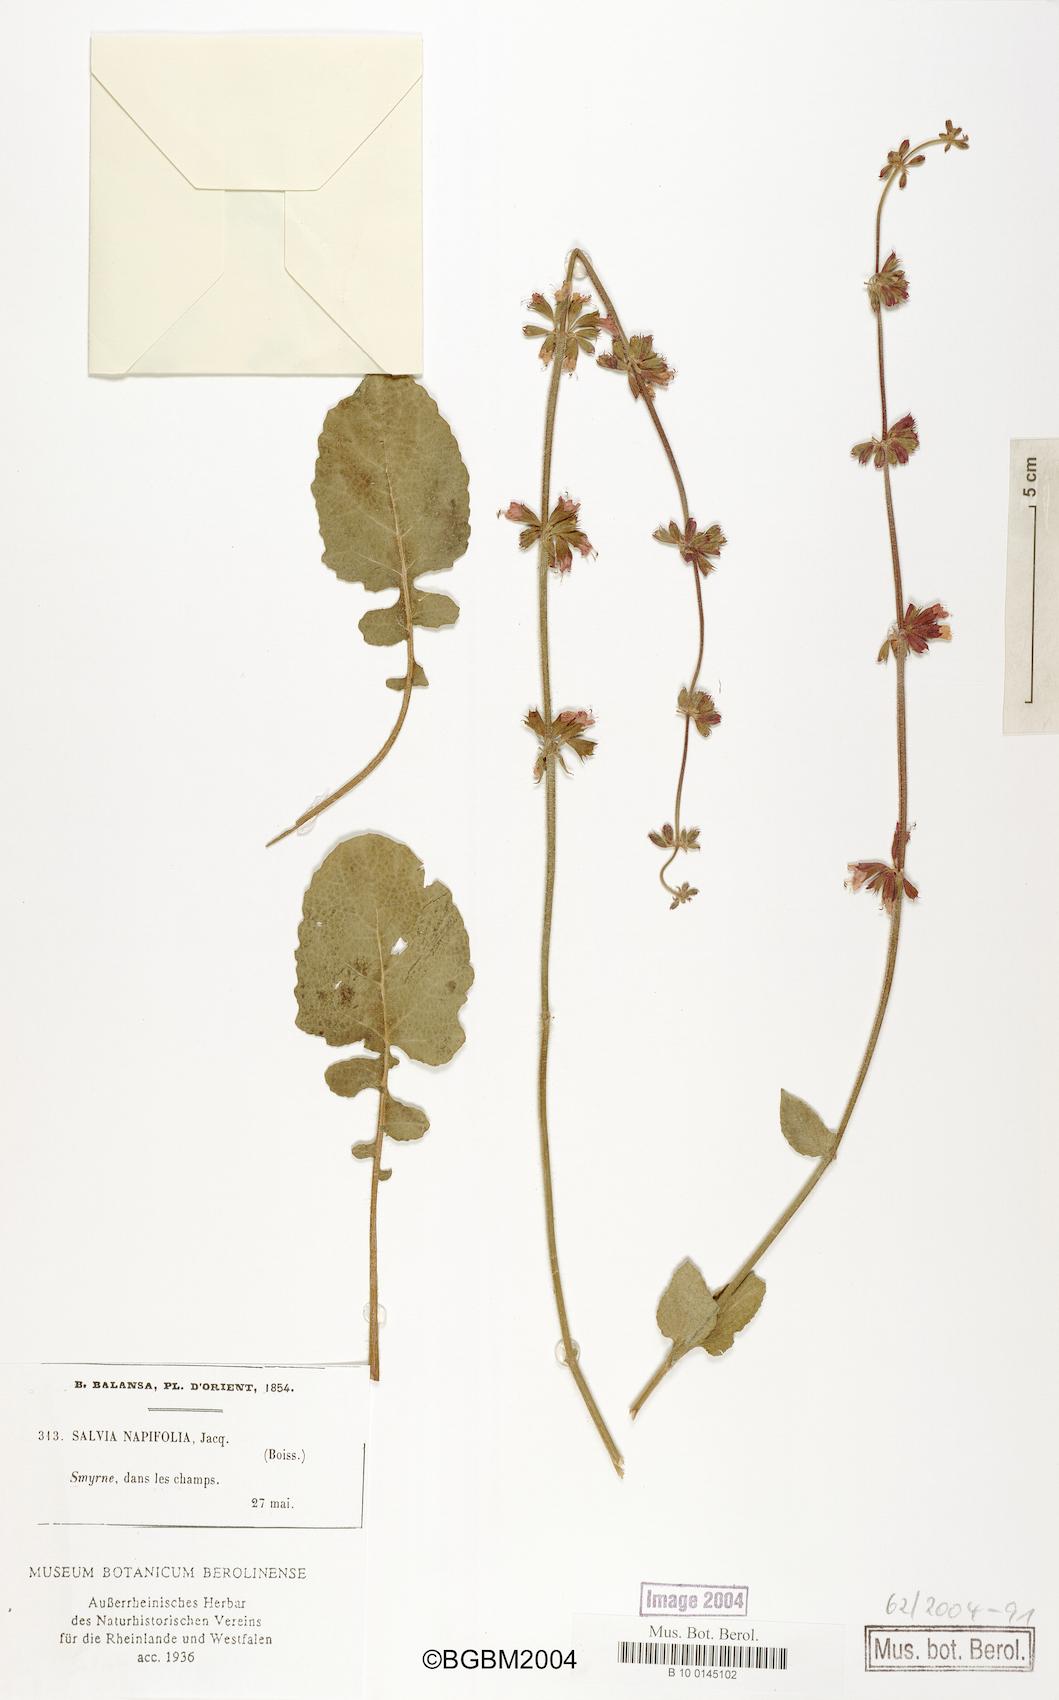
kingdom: Plantae
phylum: Tracheophyta
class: Magnoliopsida
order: Lamiales
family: Lamiaceae
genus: Salvia
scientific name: Salvia napifolia
